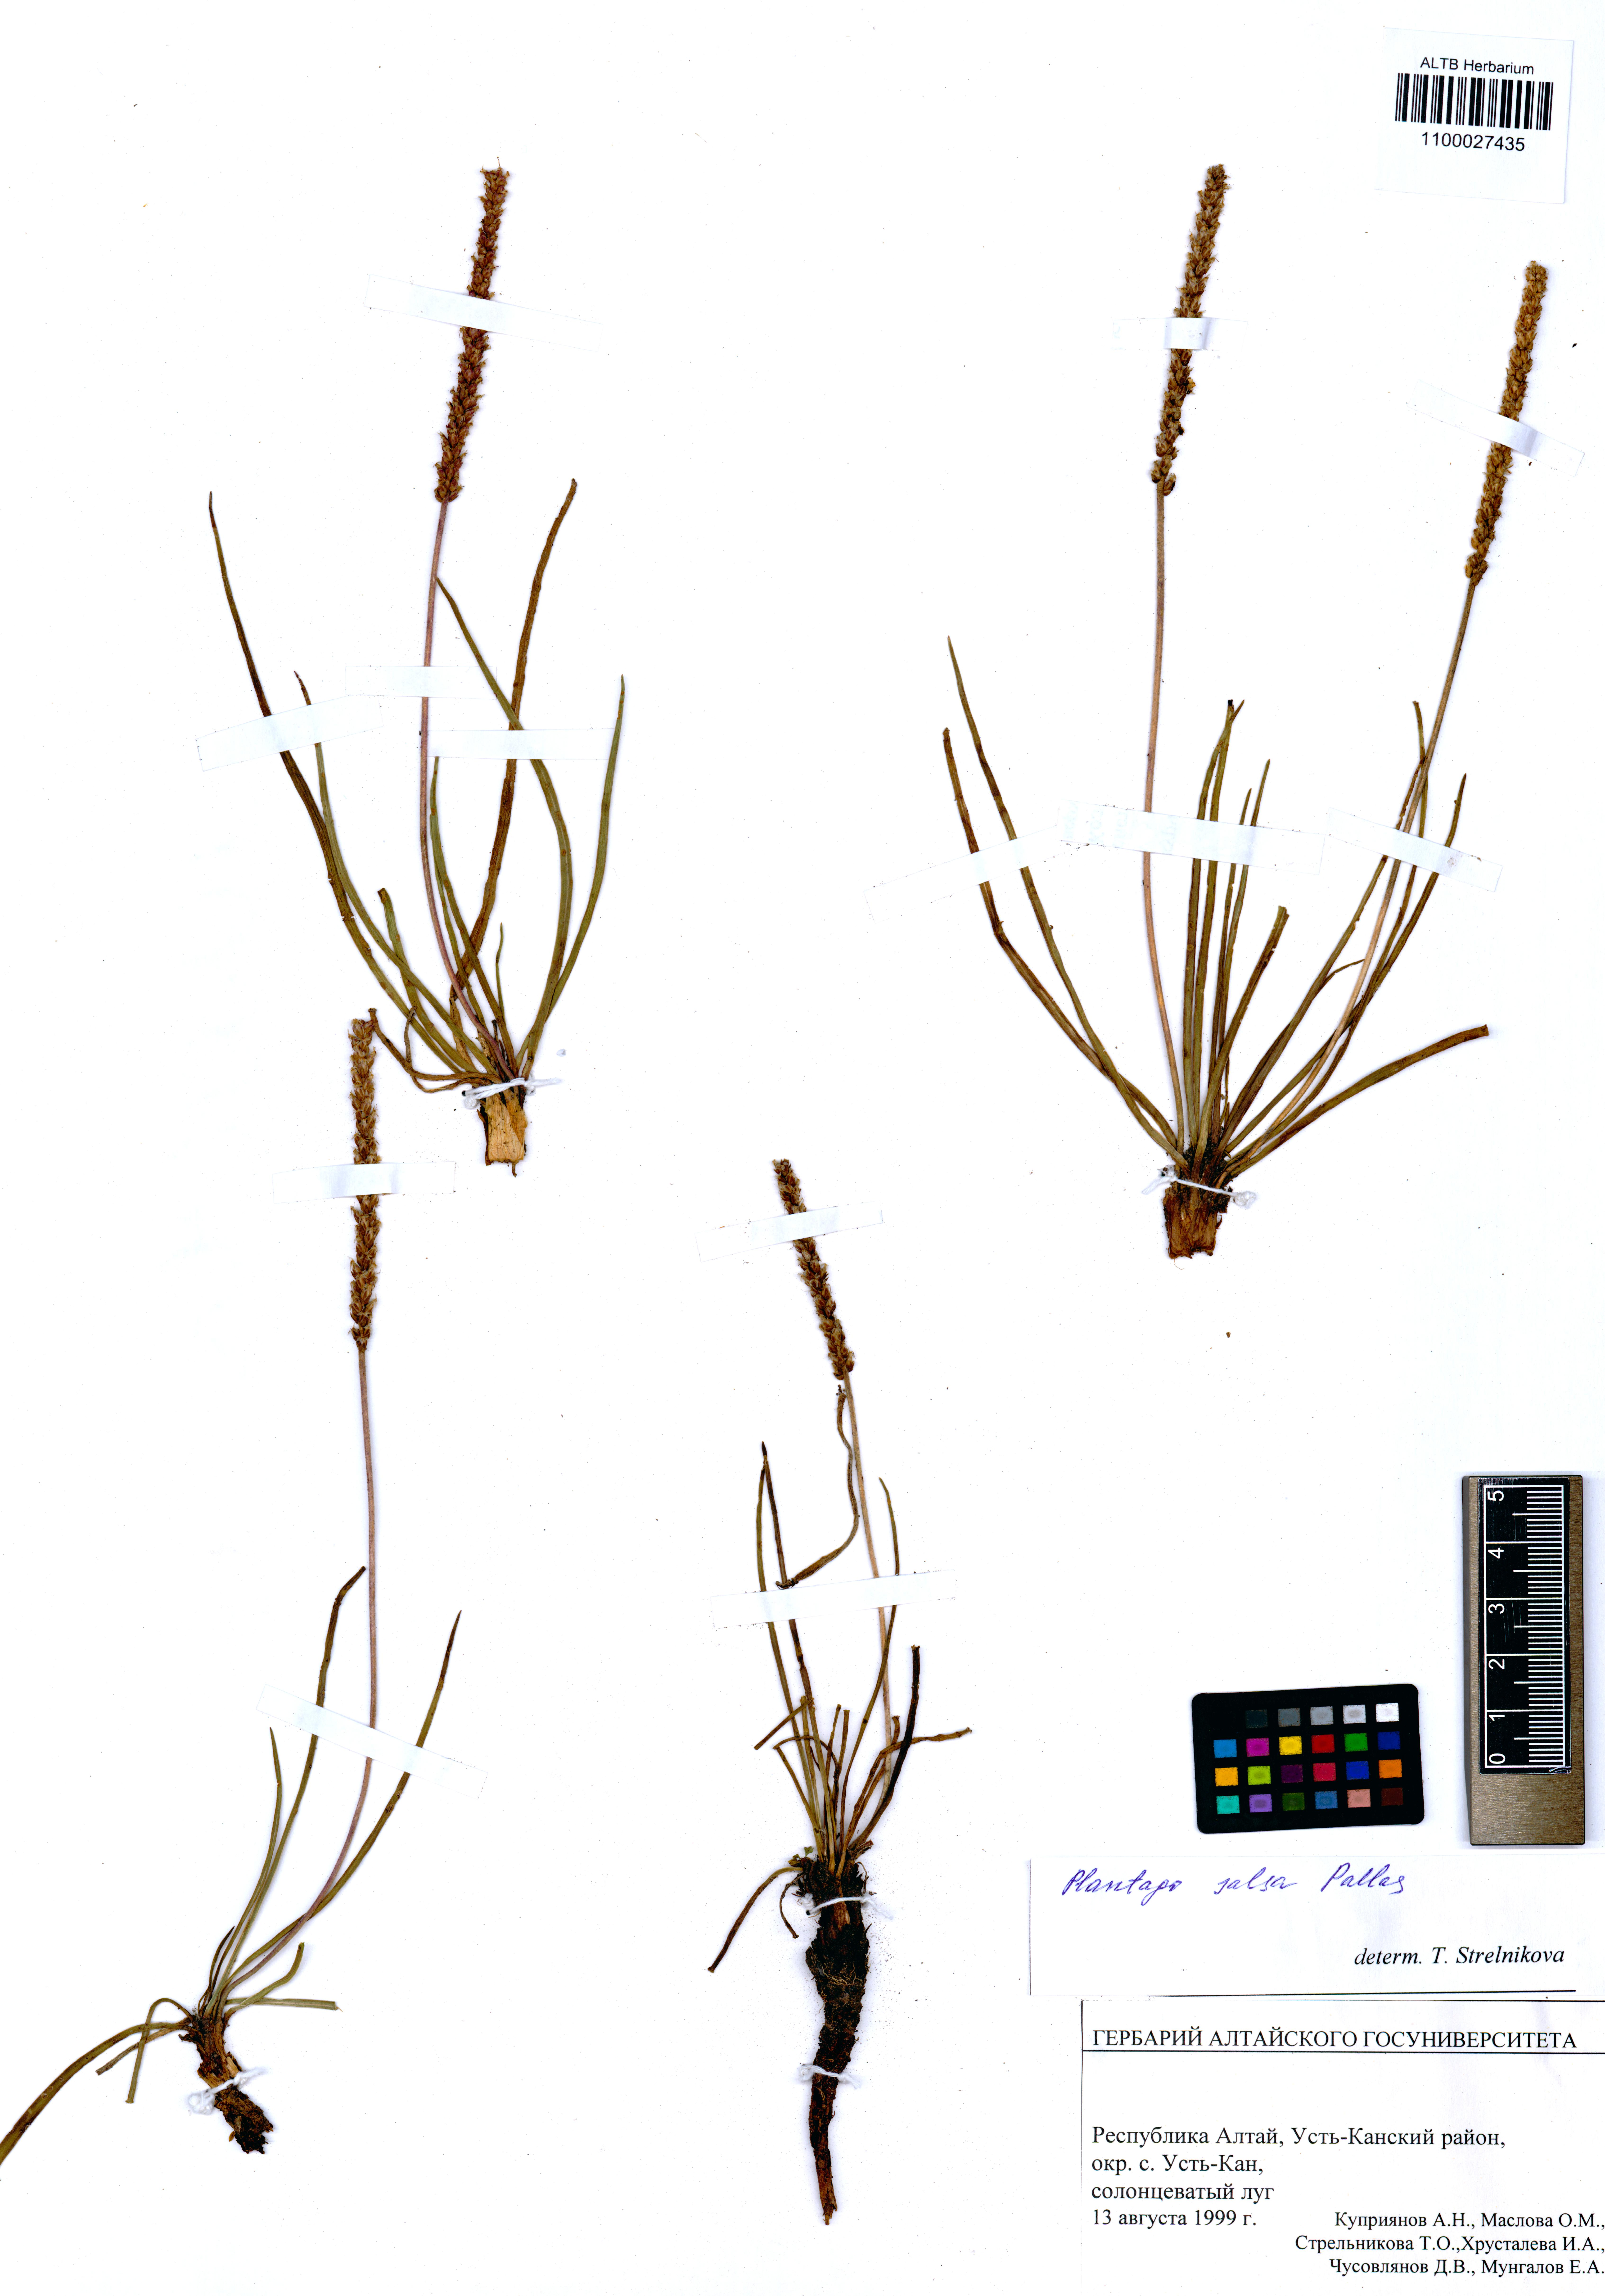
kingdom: Plantae
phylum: Tracheophyta
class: Magnoliopsida
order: Lamiales
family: Plantaginaceae
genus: Plantago
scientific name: Plantago salsa
